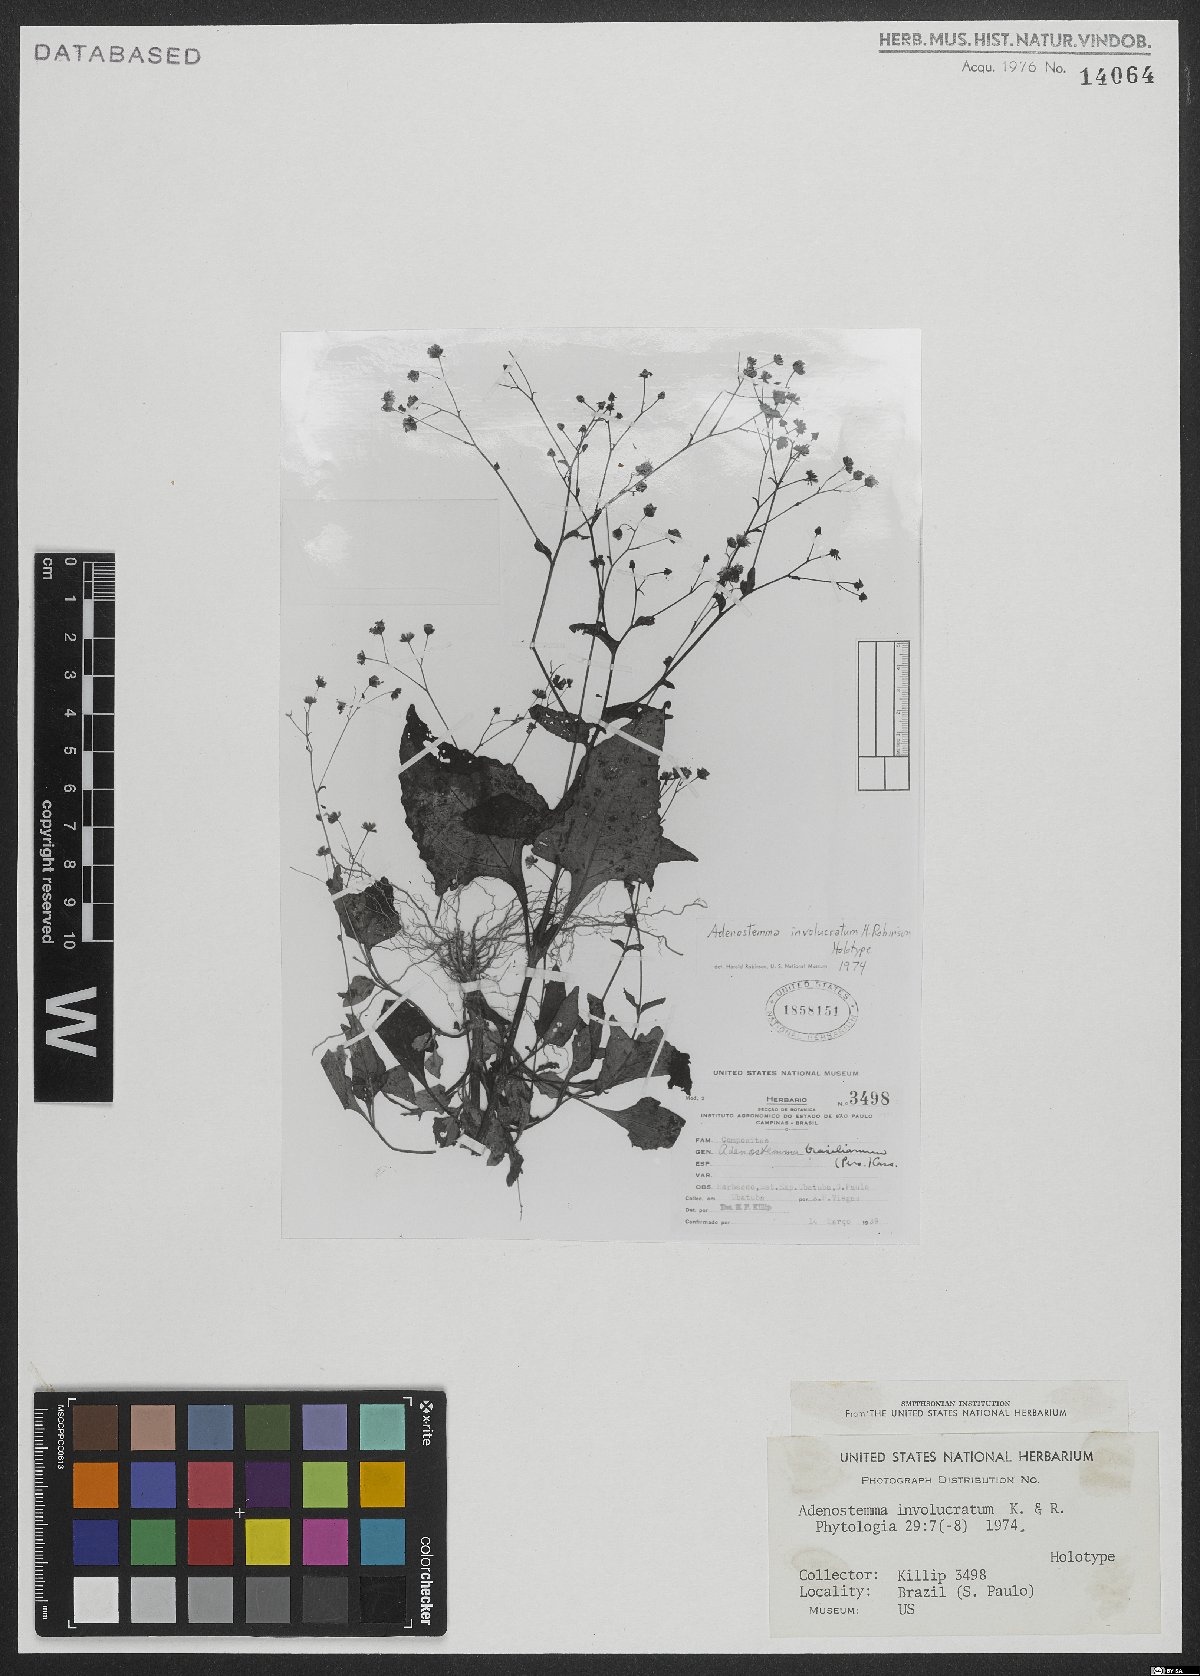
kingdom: Plantae
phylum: Tracheophyta
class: Magnoliopsida
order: Asterales
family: Asteraceae
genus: Adenostemma
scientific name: Adenostemma involucratum
